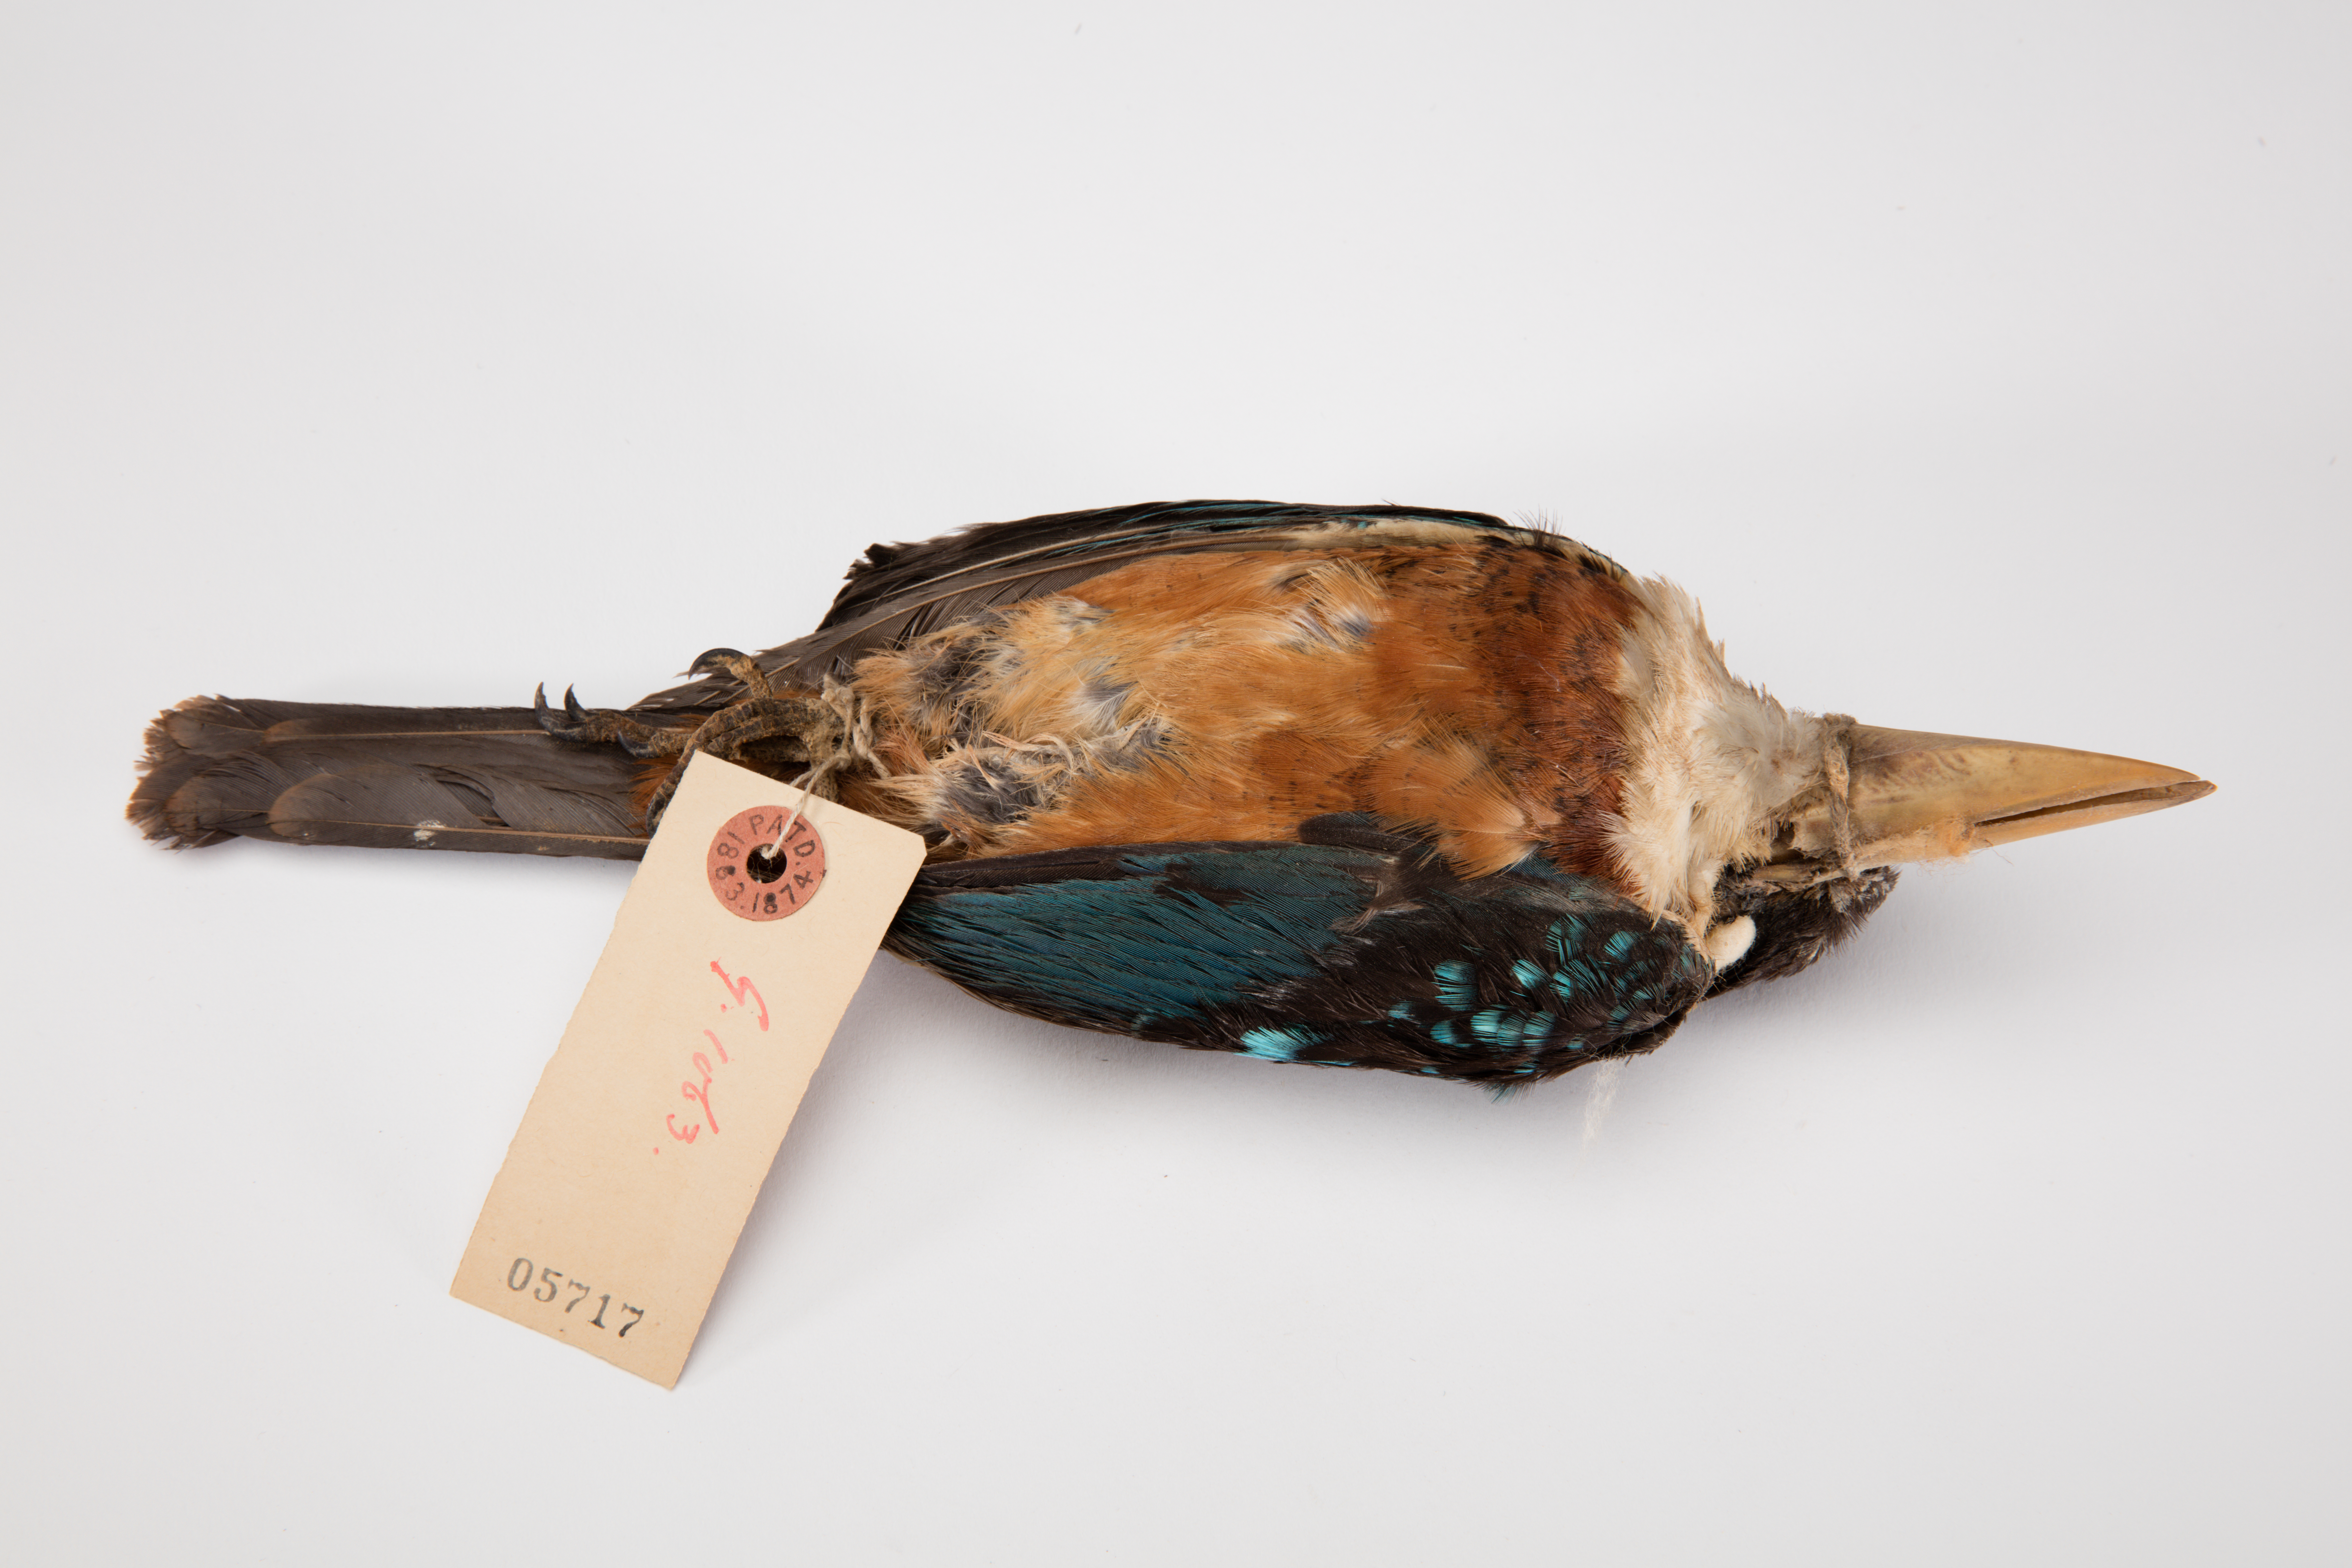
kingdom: Animalia
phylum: Chordata
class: Aves
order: Coraciiformes
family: Alcedinidae
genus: Dacelo
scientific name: Dacelo gaudichaud
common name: Rufous-bellied kookaburra
